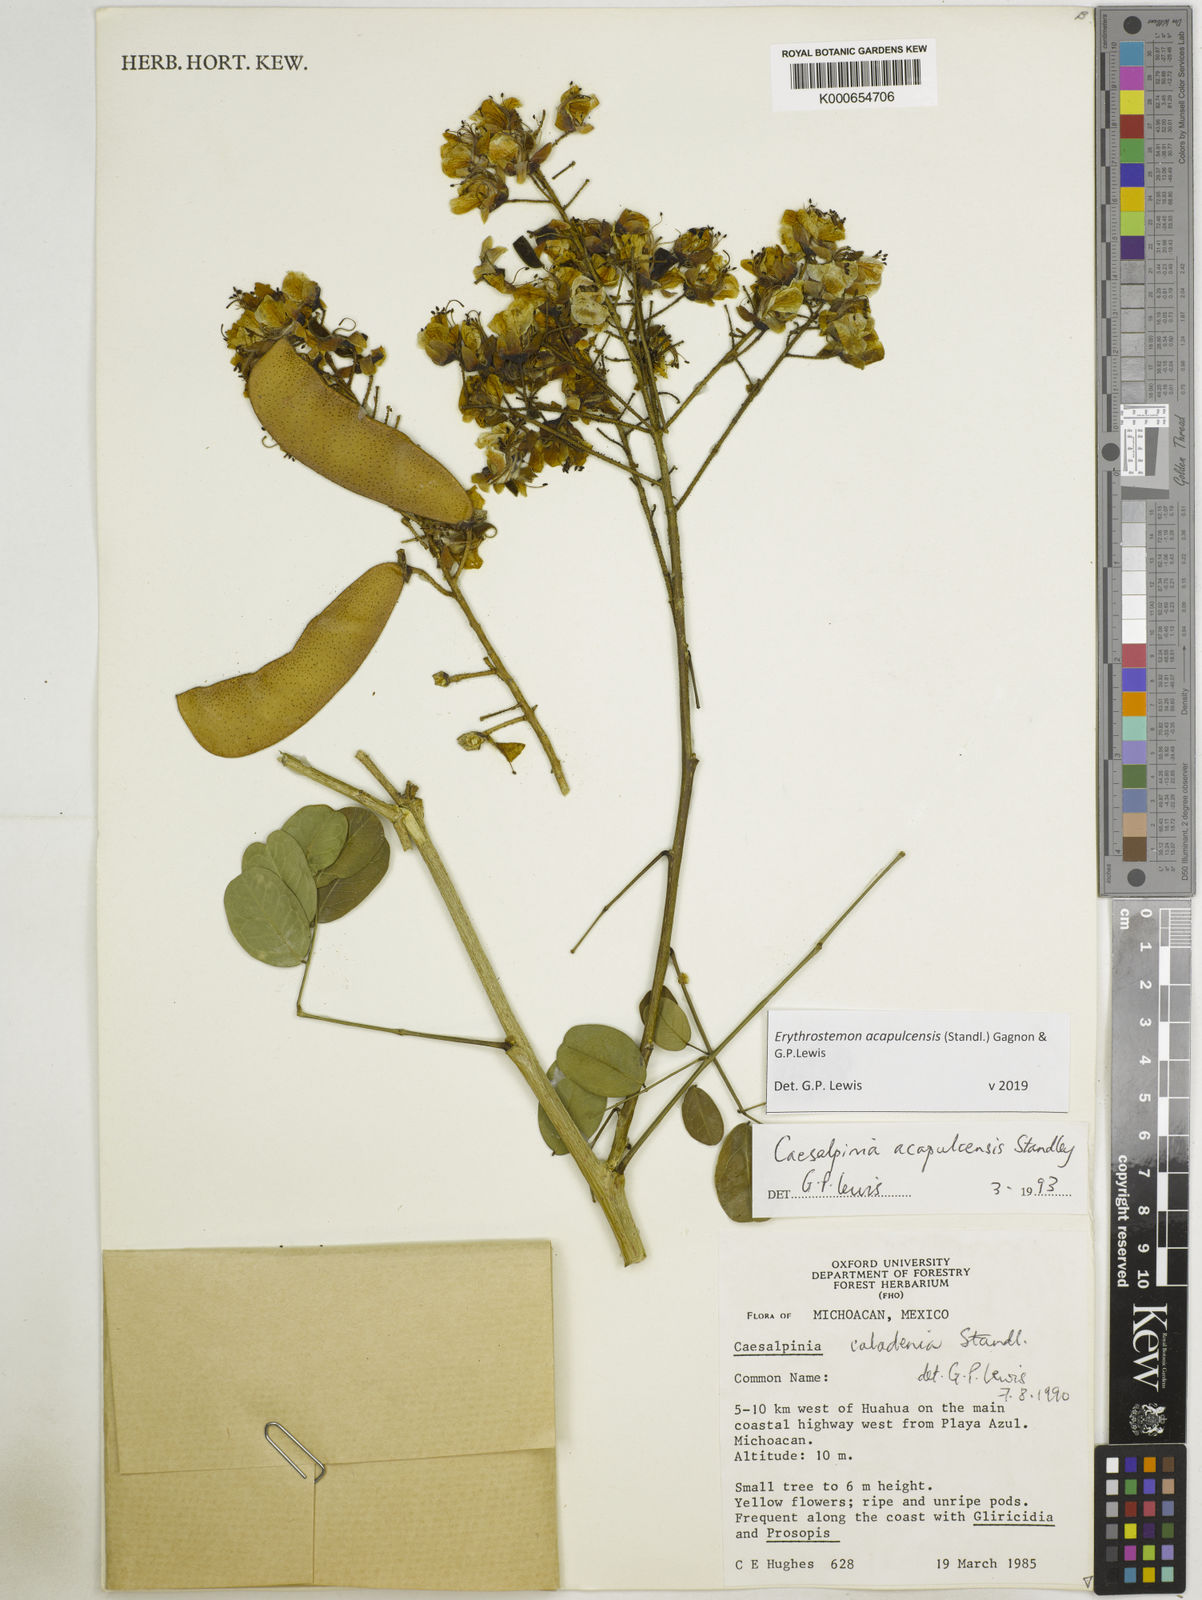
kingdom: Plantae
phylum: Tracheophyta
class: Magnoliopsida
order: Fabales
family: Fabaceae
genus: Erythrostemon
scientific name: Erythrostemon acapulcensis
